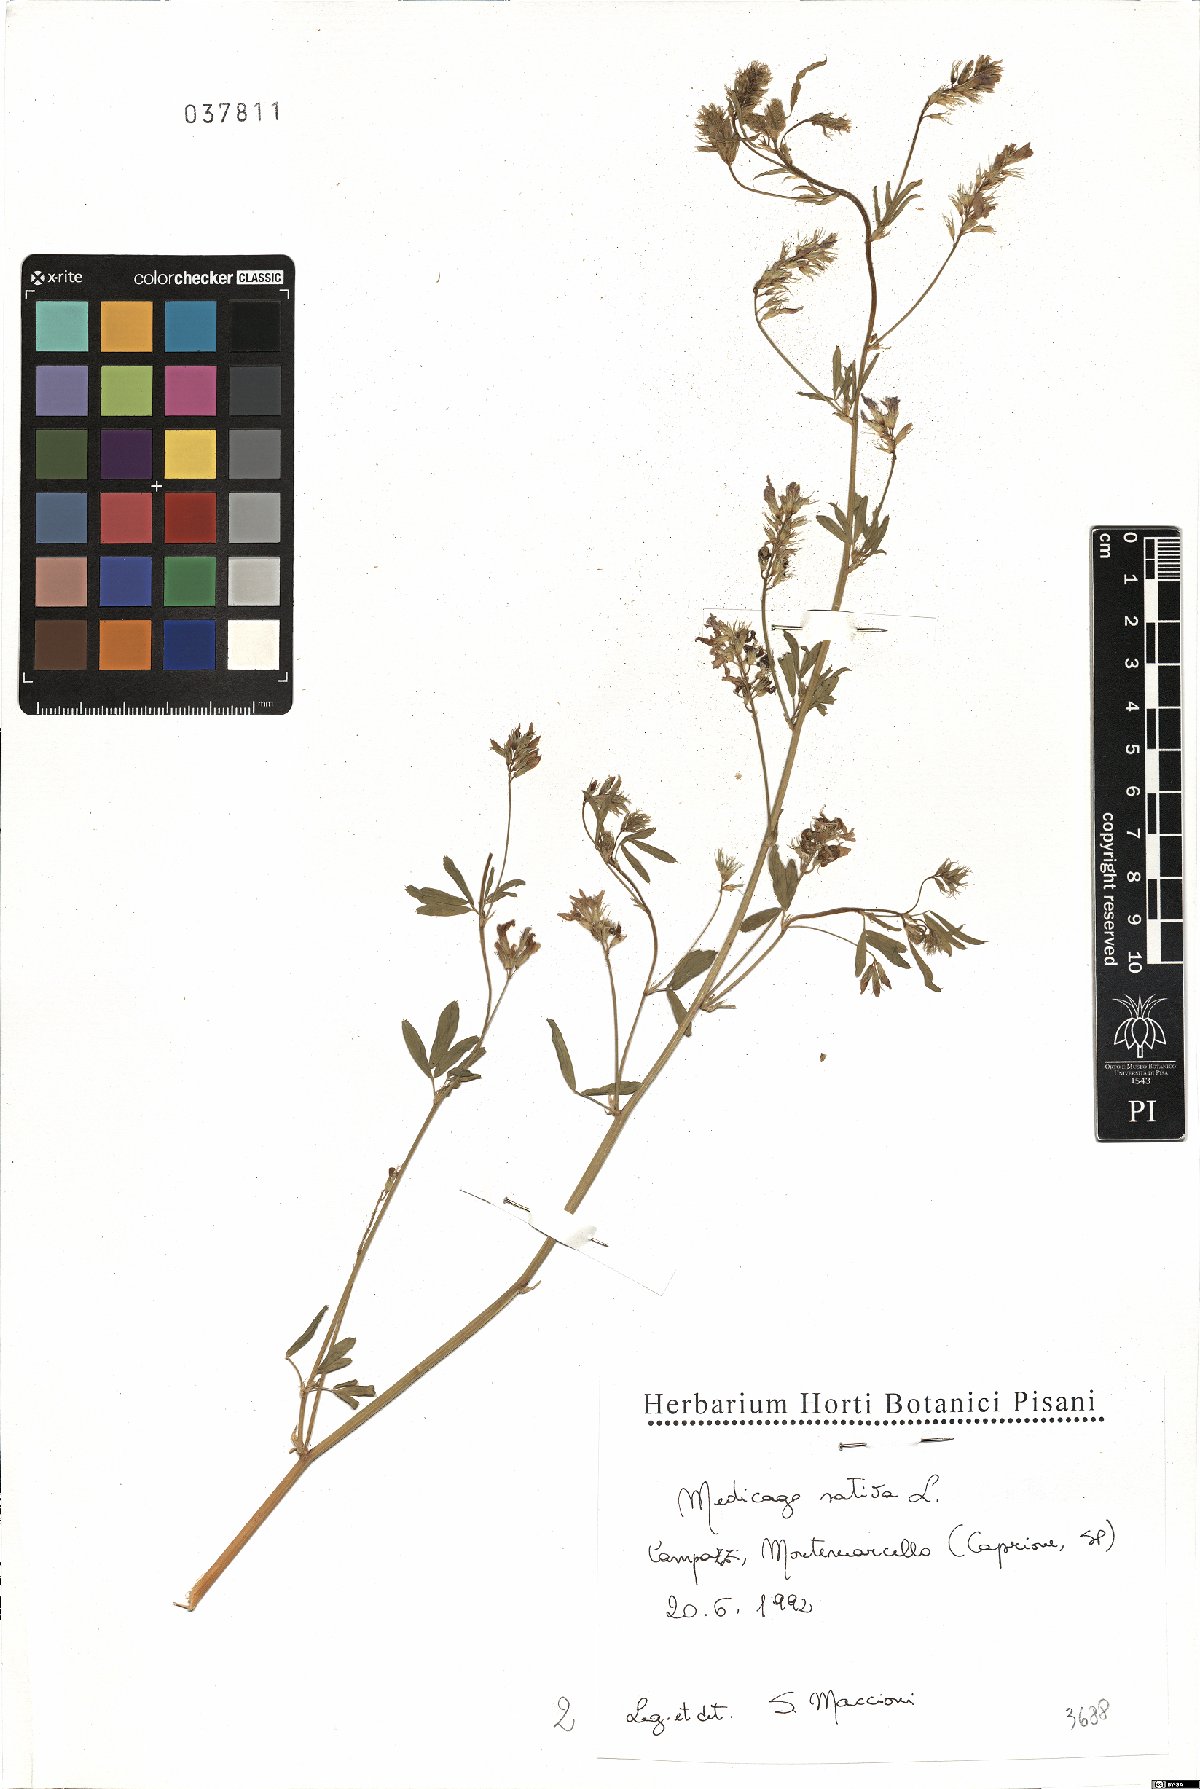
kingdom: Plantae
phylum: Tracheophyta
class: Magnoliopsida
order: Fabales
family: Fabaceae
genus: Medicago
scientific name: Medicago sativa
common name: Alfalfa
